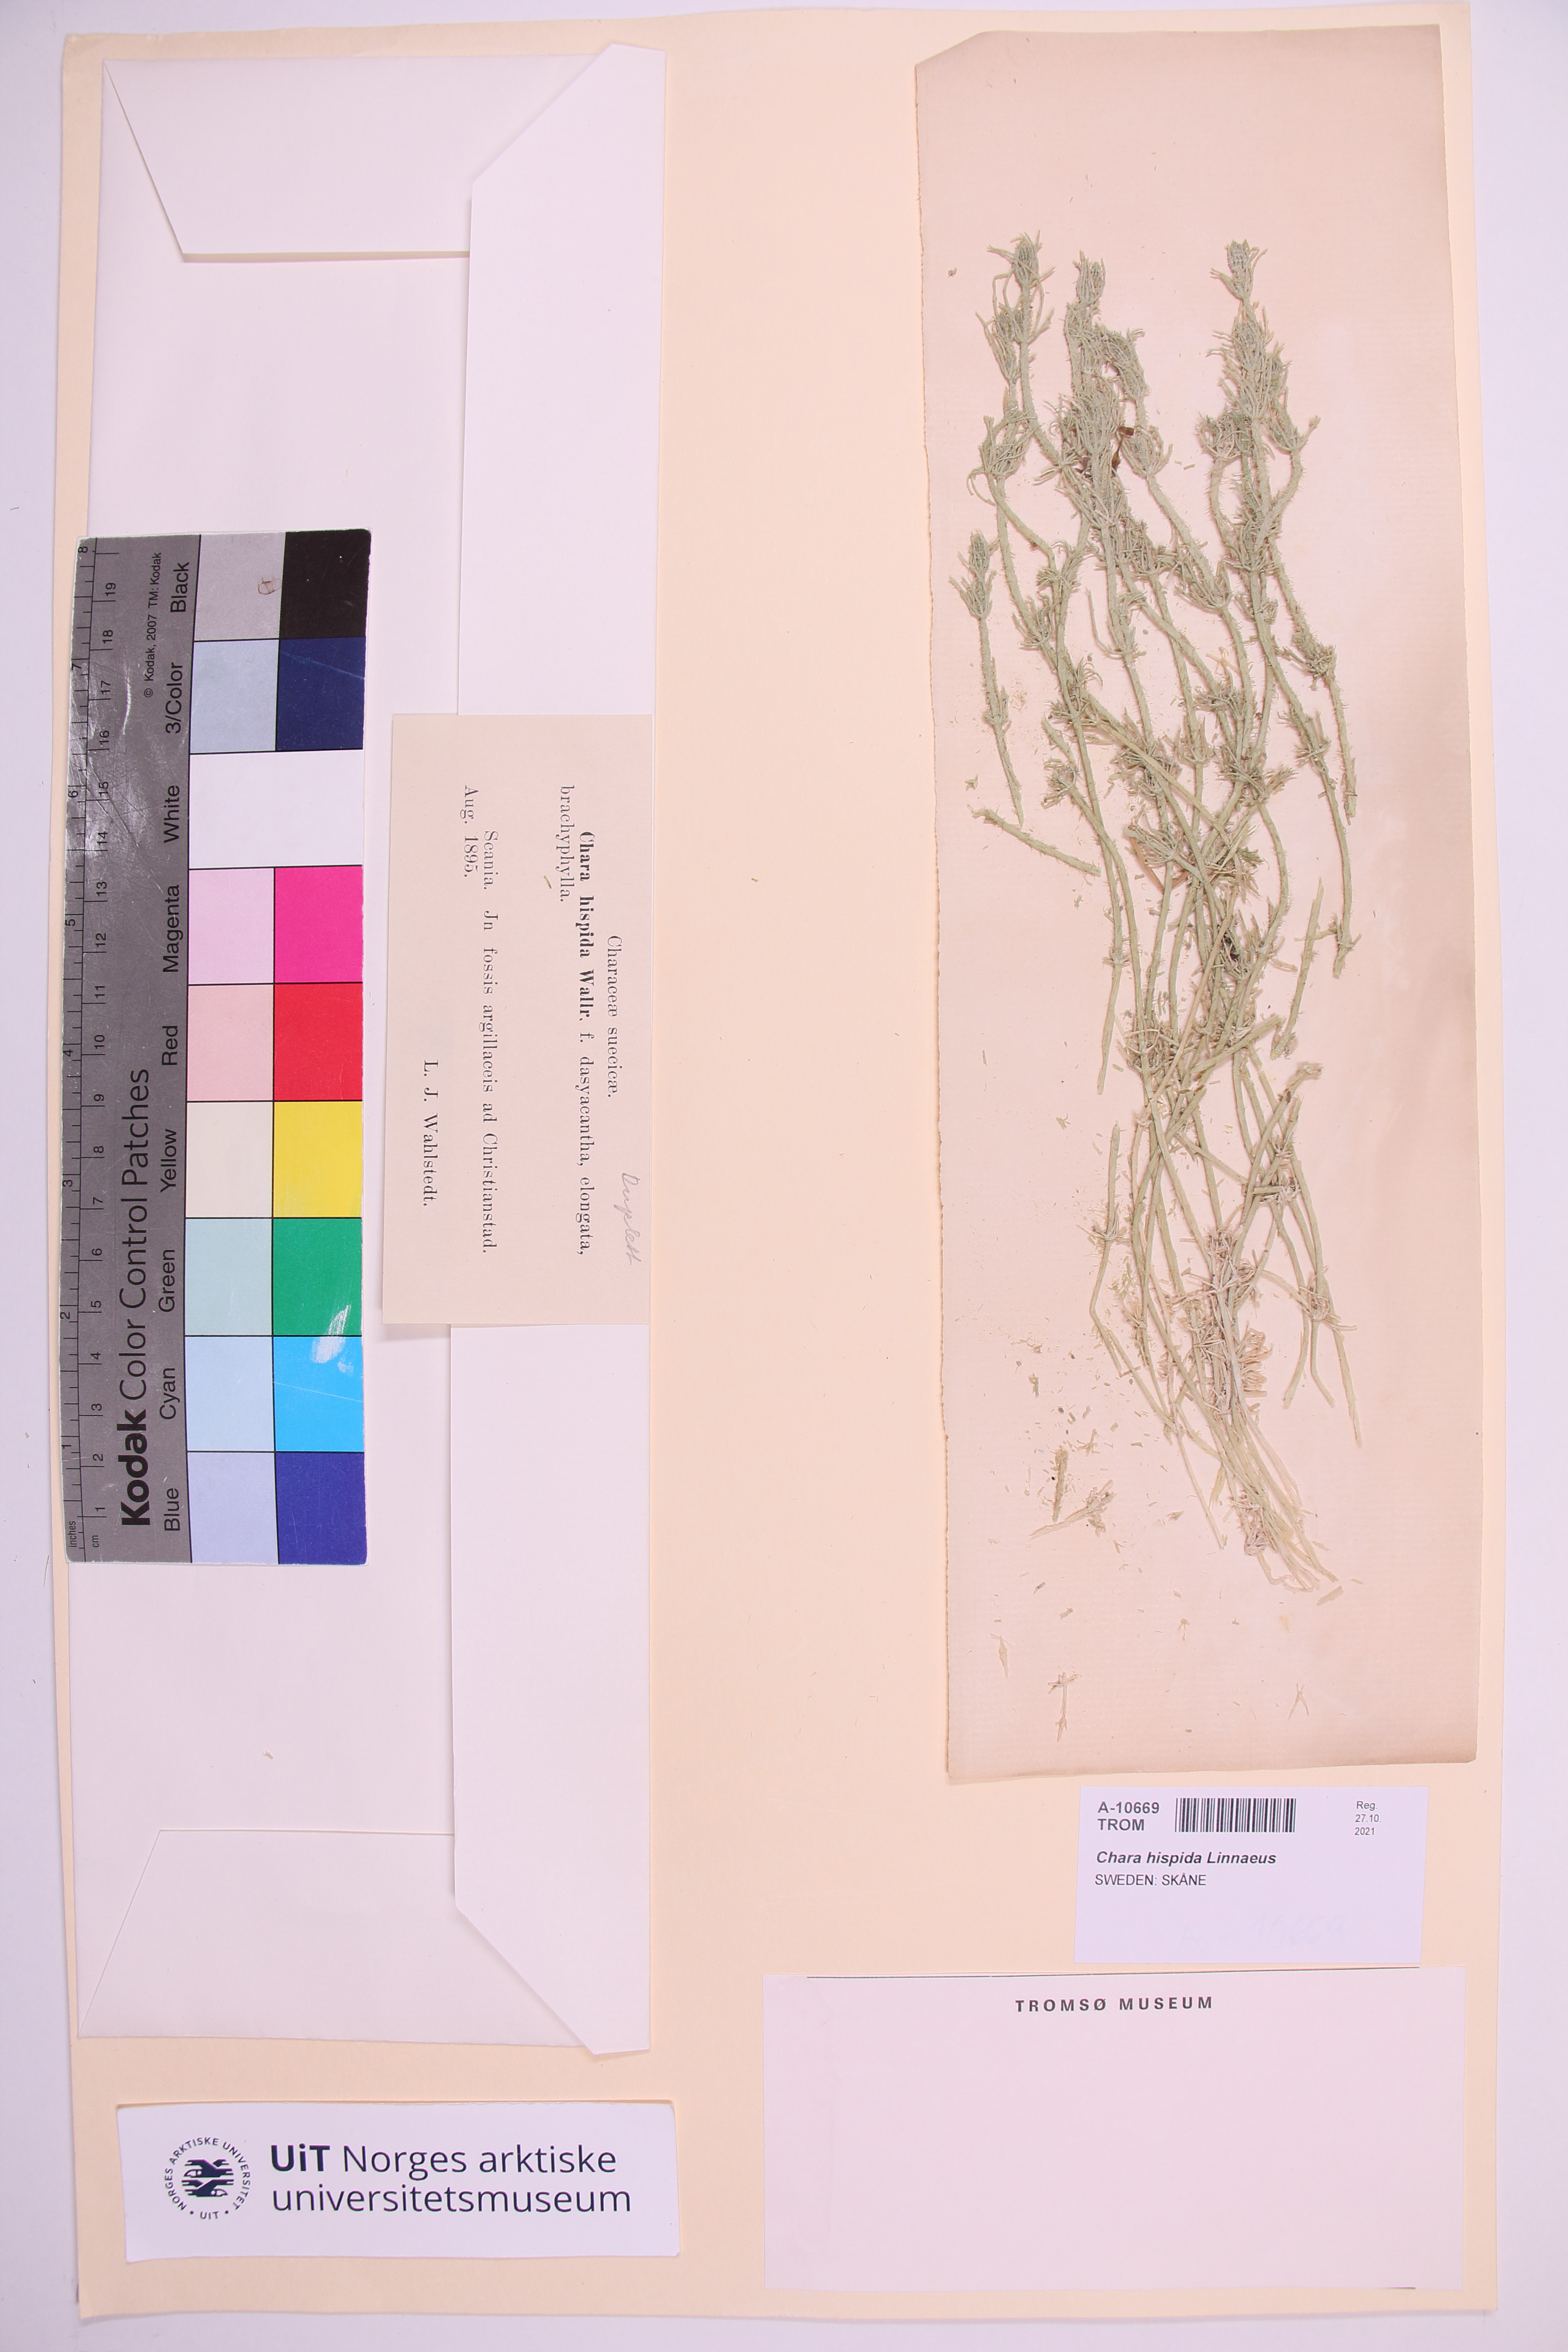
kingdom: Plantae
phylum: Charophyta
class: Charophyceae
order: Charales
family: Characeae
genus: Chara
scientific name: Chara hispida
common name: Bristly stonewort
